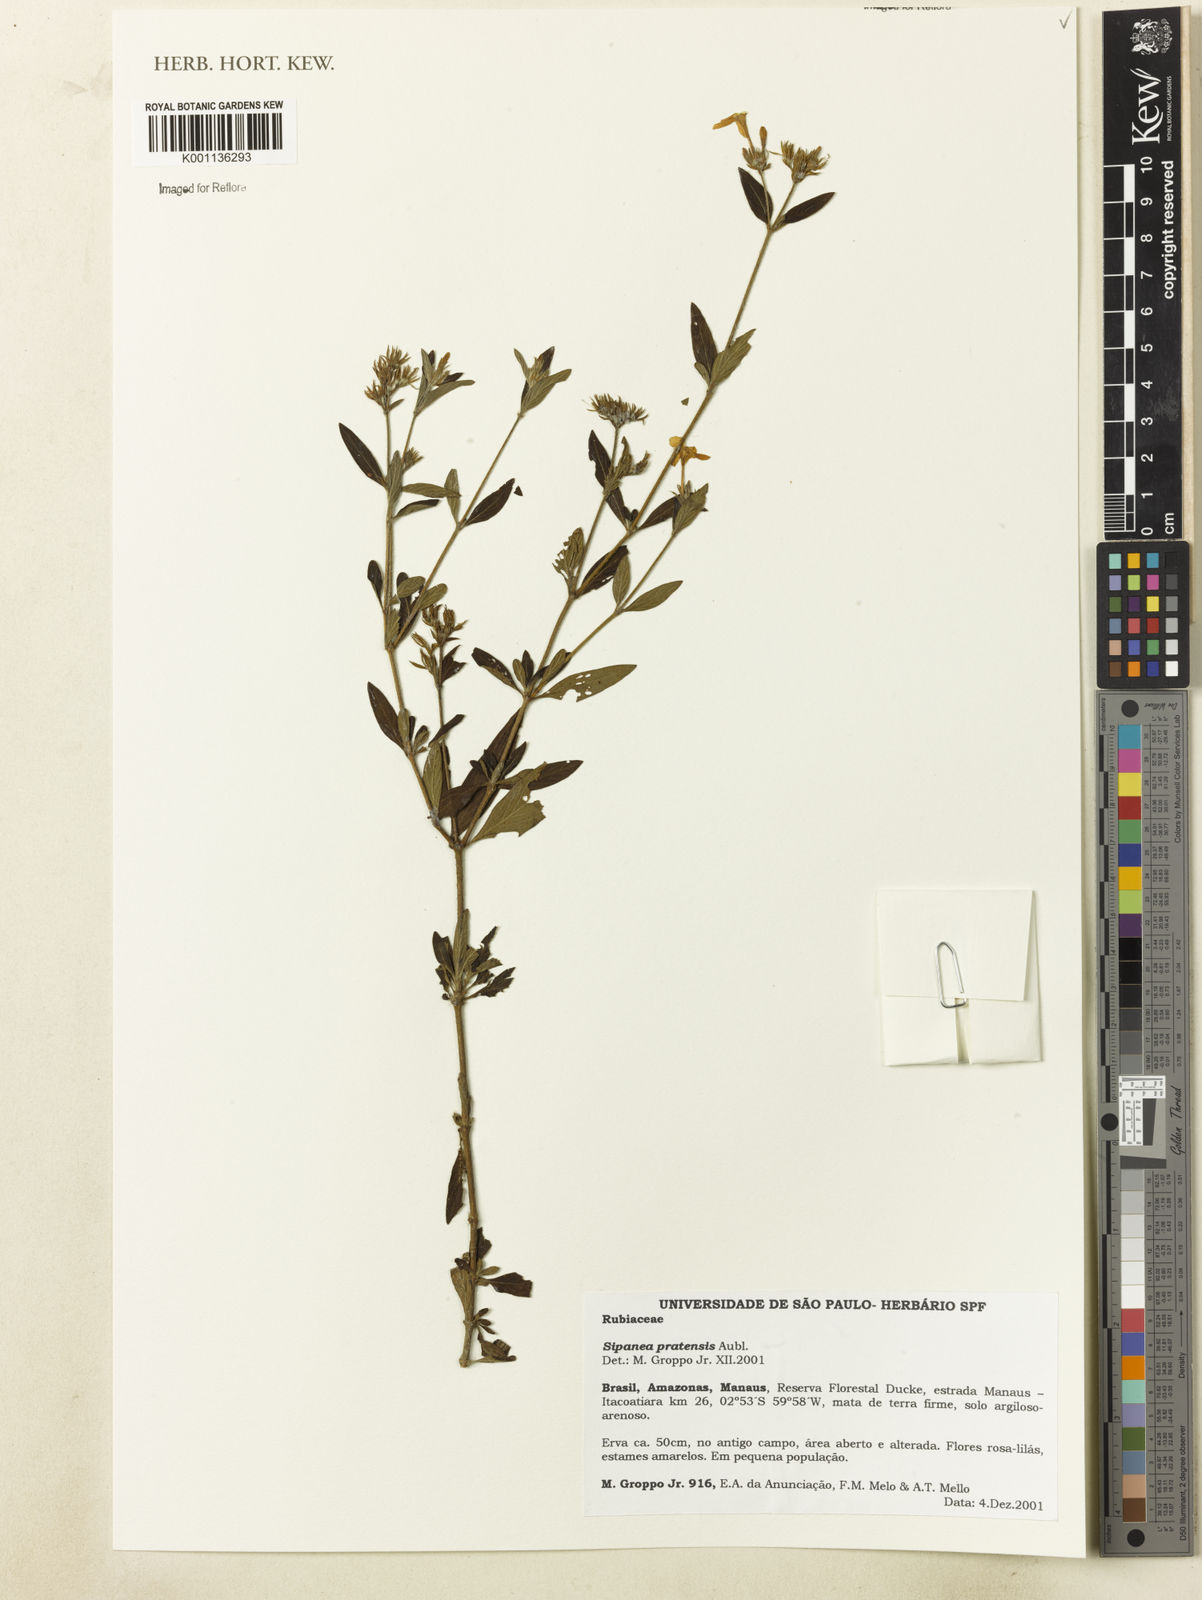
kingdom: Plantae
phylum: Tracheophyta
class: Magnoliopsida
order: Gentianales
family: Rubiaceae
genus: Sipanea
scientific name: Sipanea pratensis
